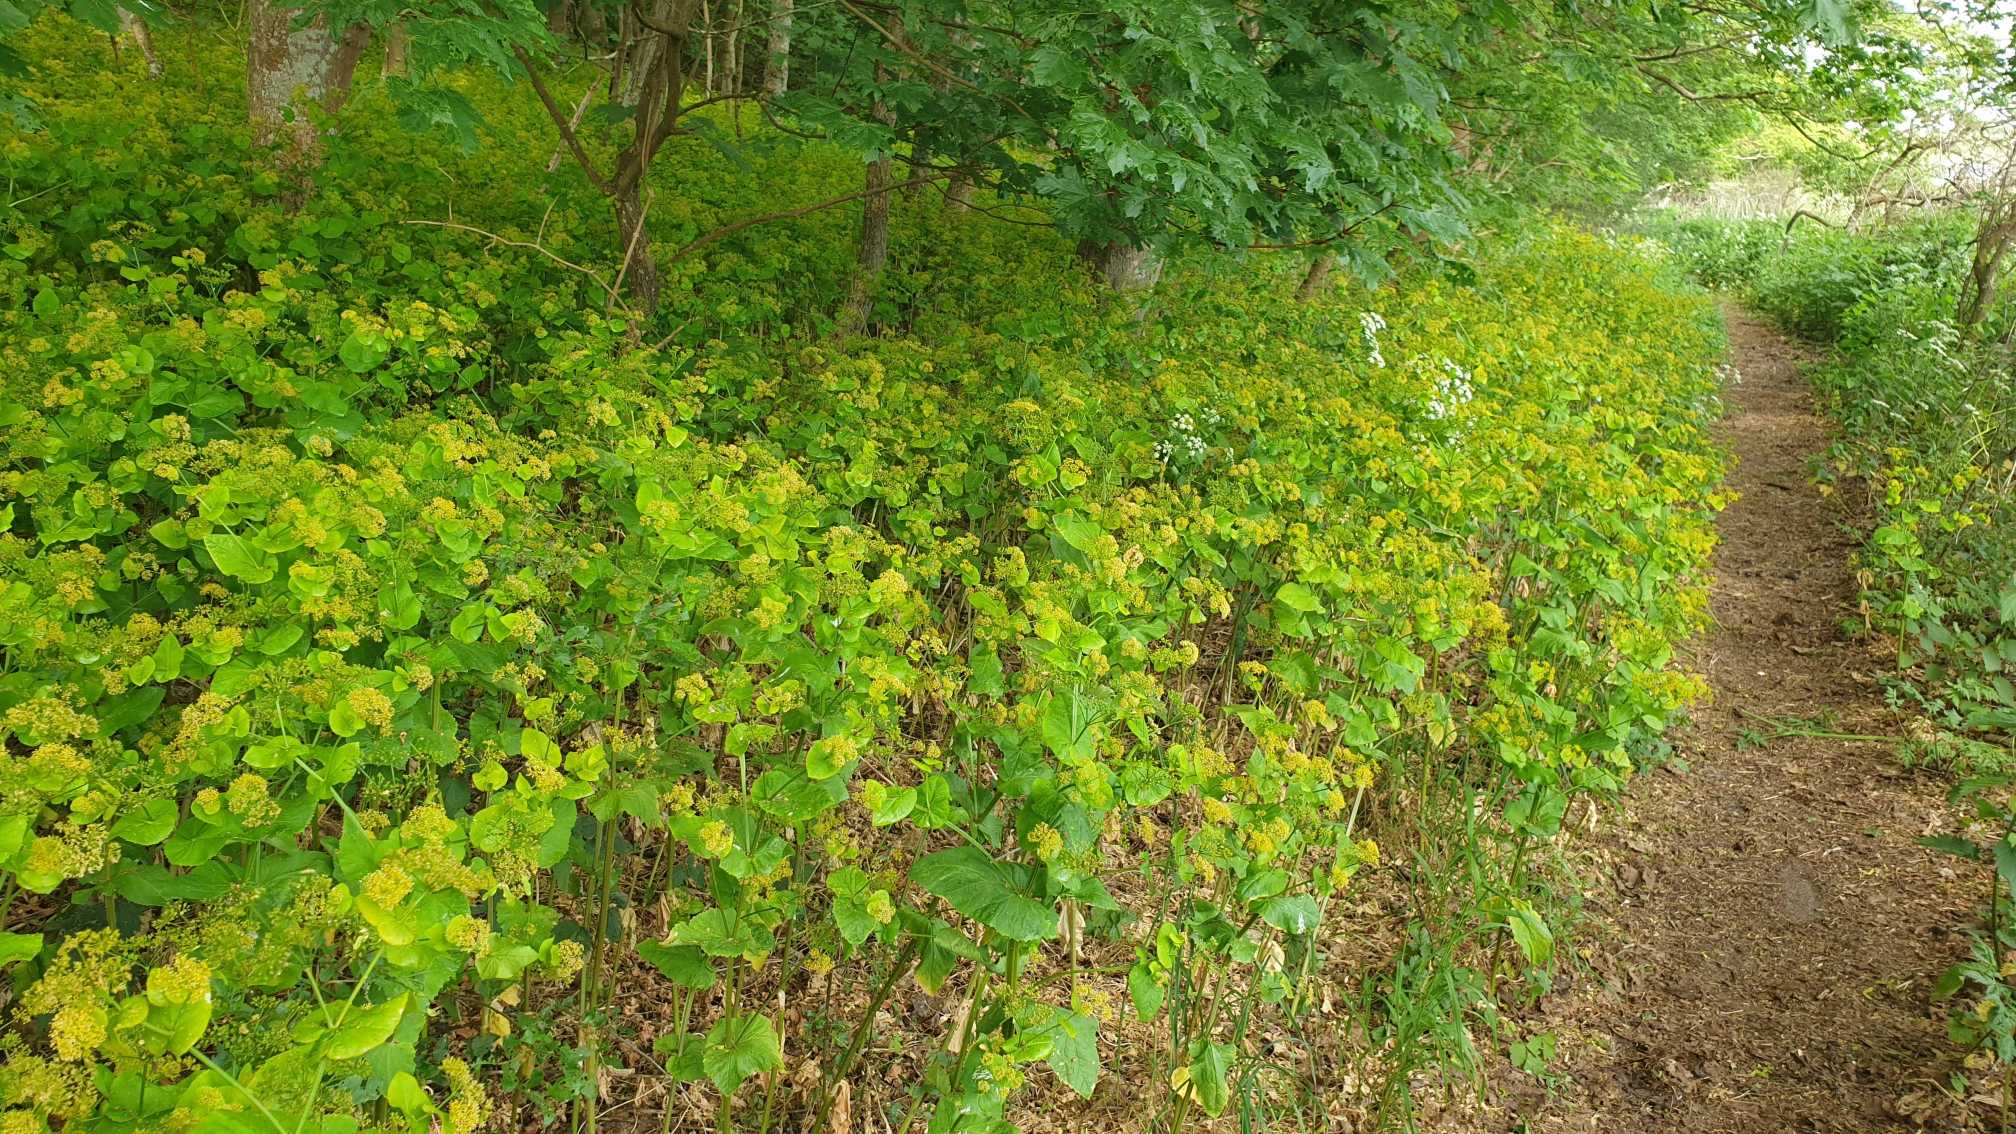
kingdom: Plantae
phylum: Tracheophyta
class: Magnoliopsida
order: Apiales
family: Apiaceae
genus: Smyrnium
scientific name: Smyrnium perfoliatum
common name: Lundgylden
